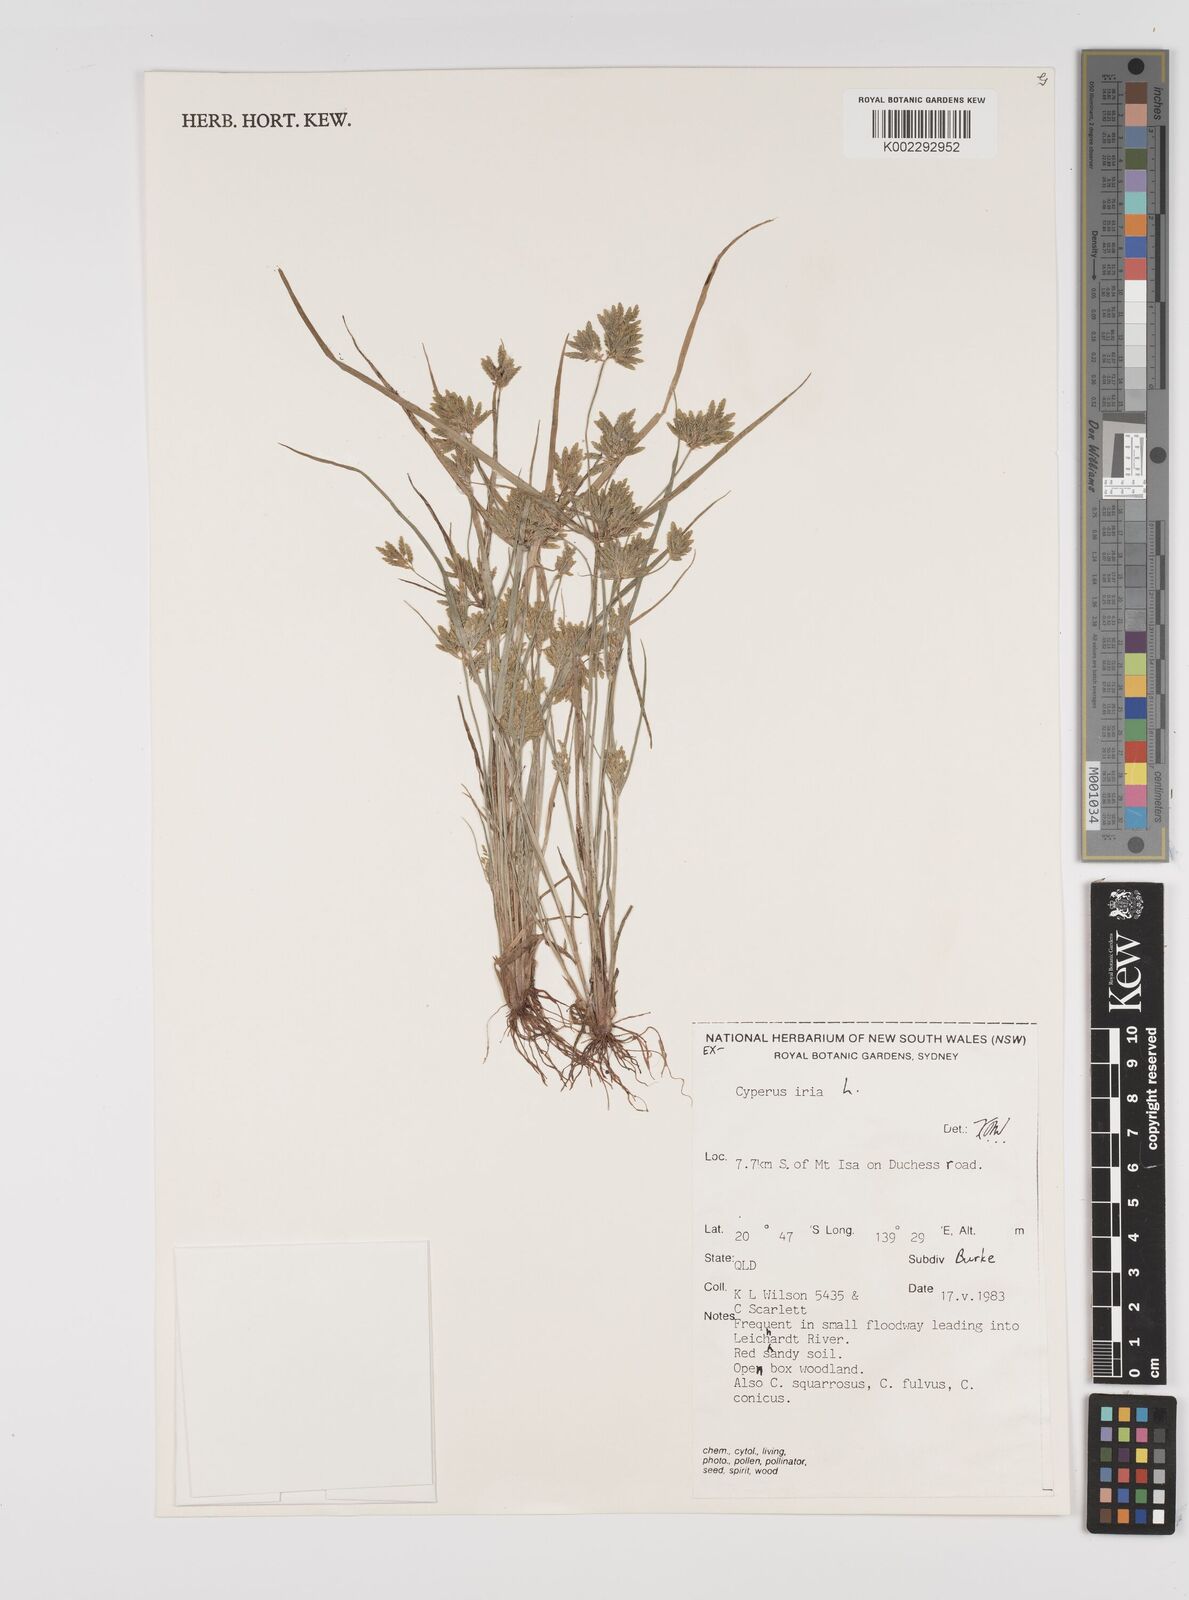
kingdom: Plantae
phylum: Tracheophyta
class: Liliopsida
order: Poales
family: Cyperaceae
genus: Cyperus
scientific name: Cyperus iria
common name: Ricefield flatsedge
